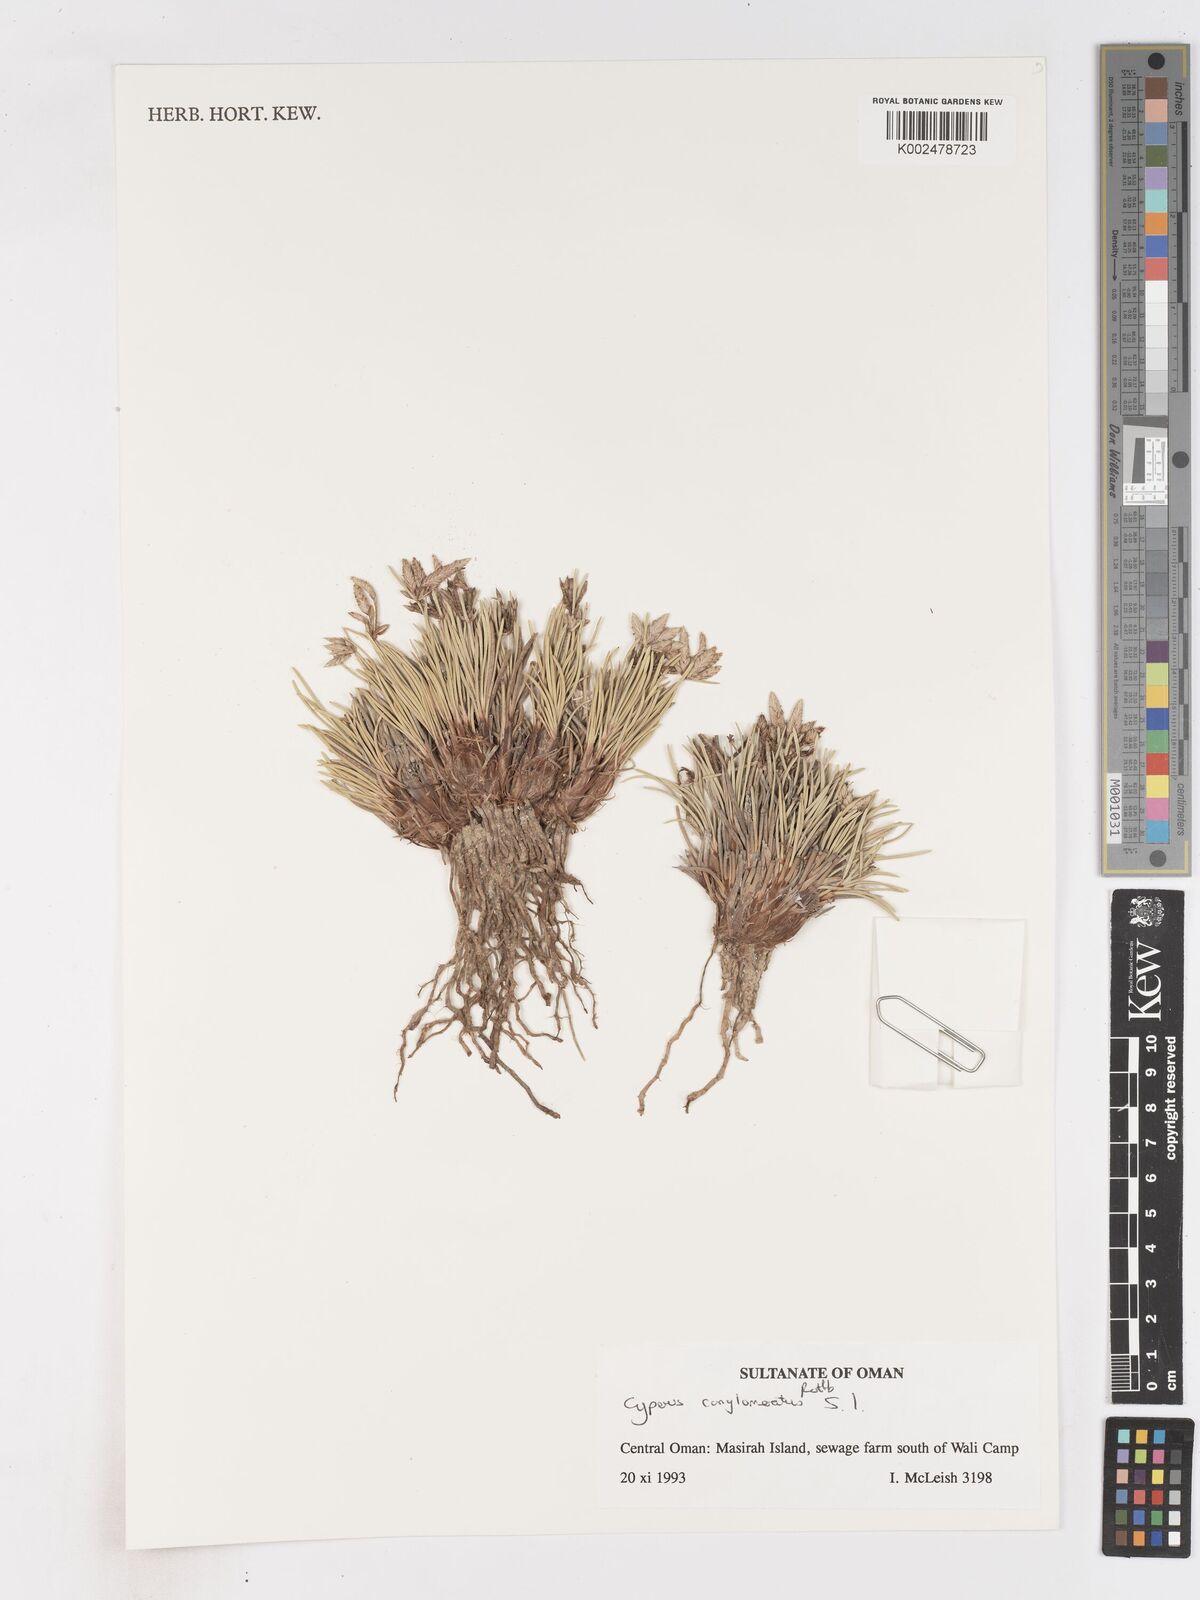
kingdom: Plantae
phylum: Tracheophyta
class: Liliopsida
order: Poales
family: Cyperaceae
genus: Cyperus
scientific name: Cyperus conglomeratus
